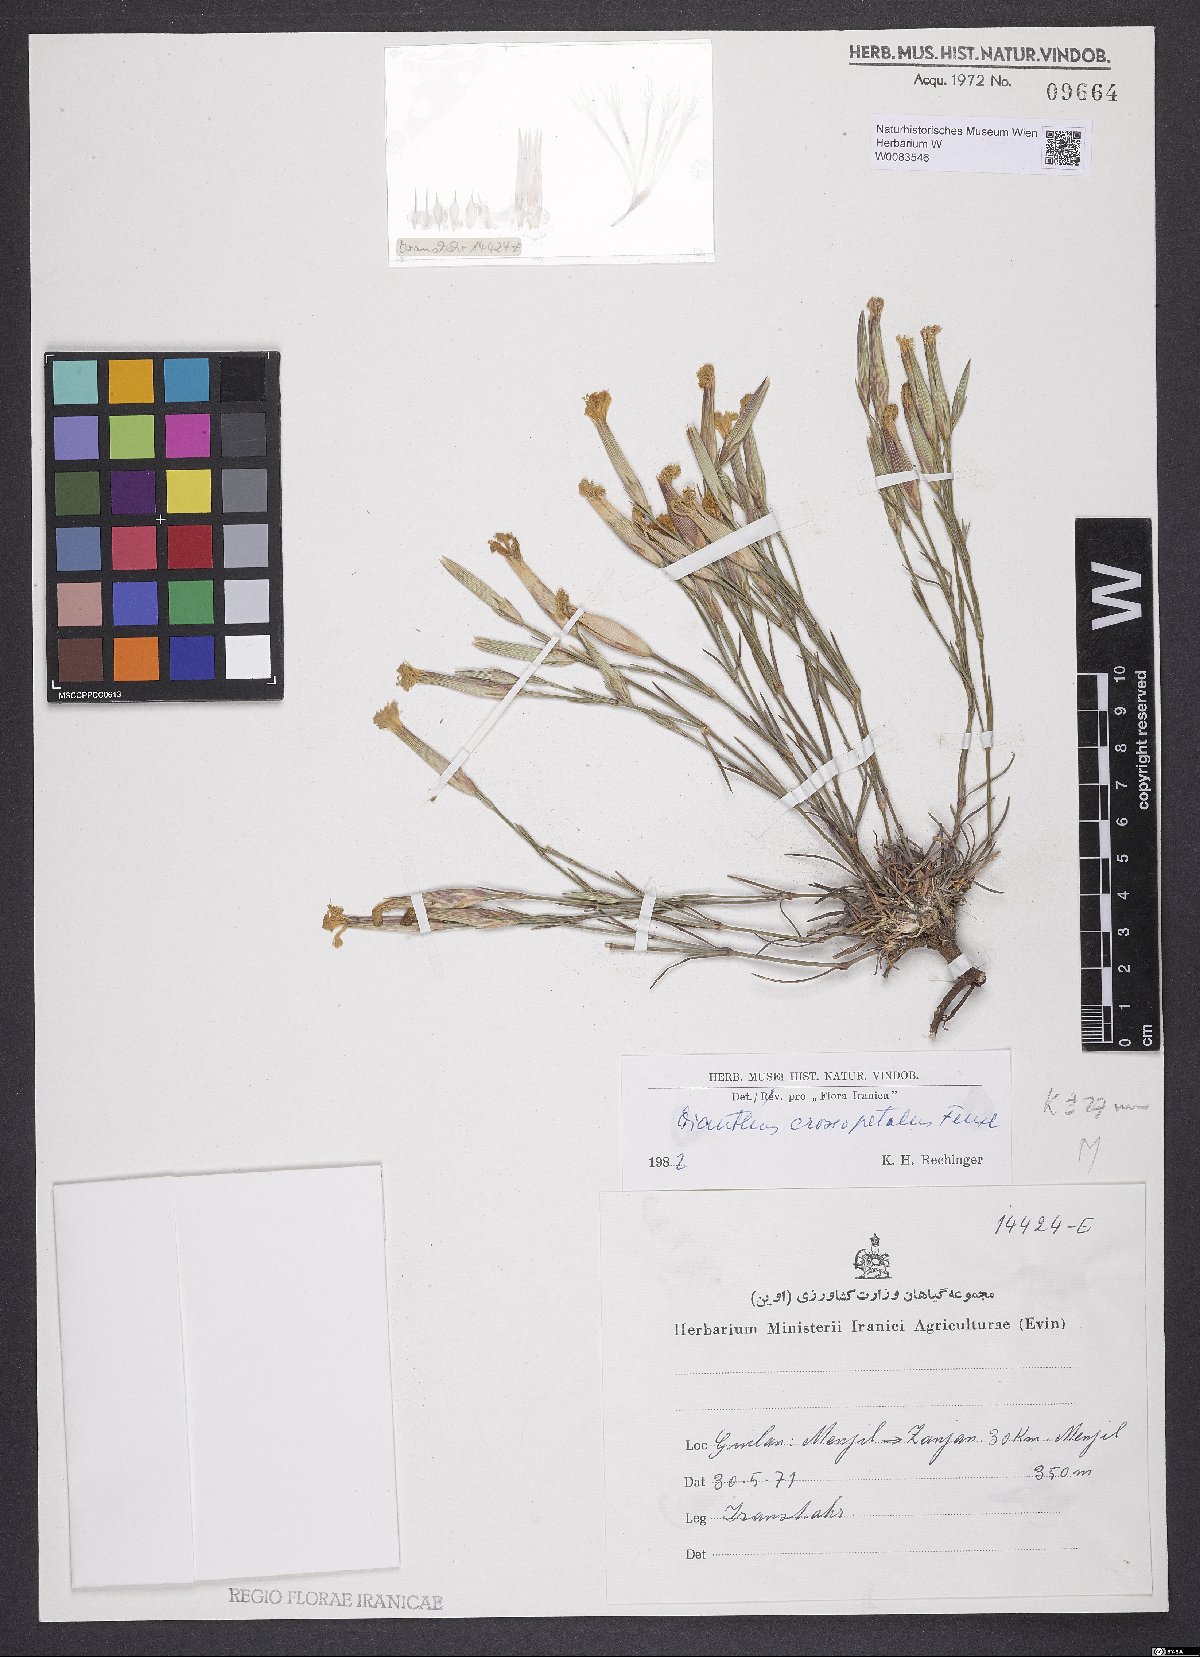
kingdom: Plantae
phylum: Tracheophyta
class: Magnoliopsida
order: Caryophyllales
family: Caryophyllaceae
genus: Dianthus
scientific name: Dianthus crossopetalus
